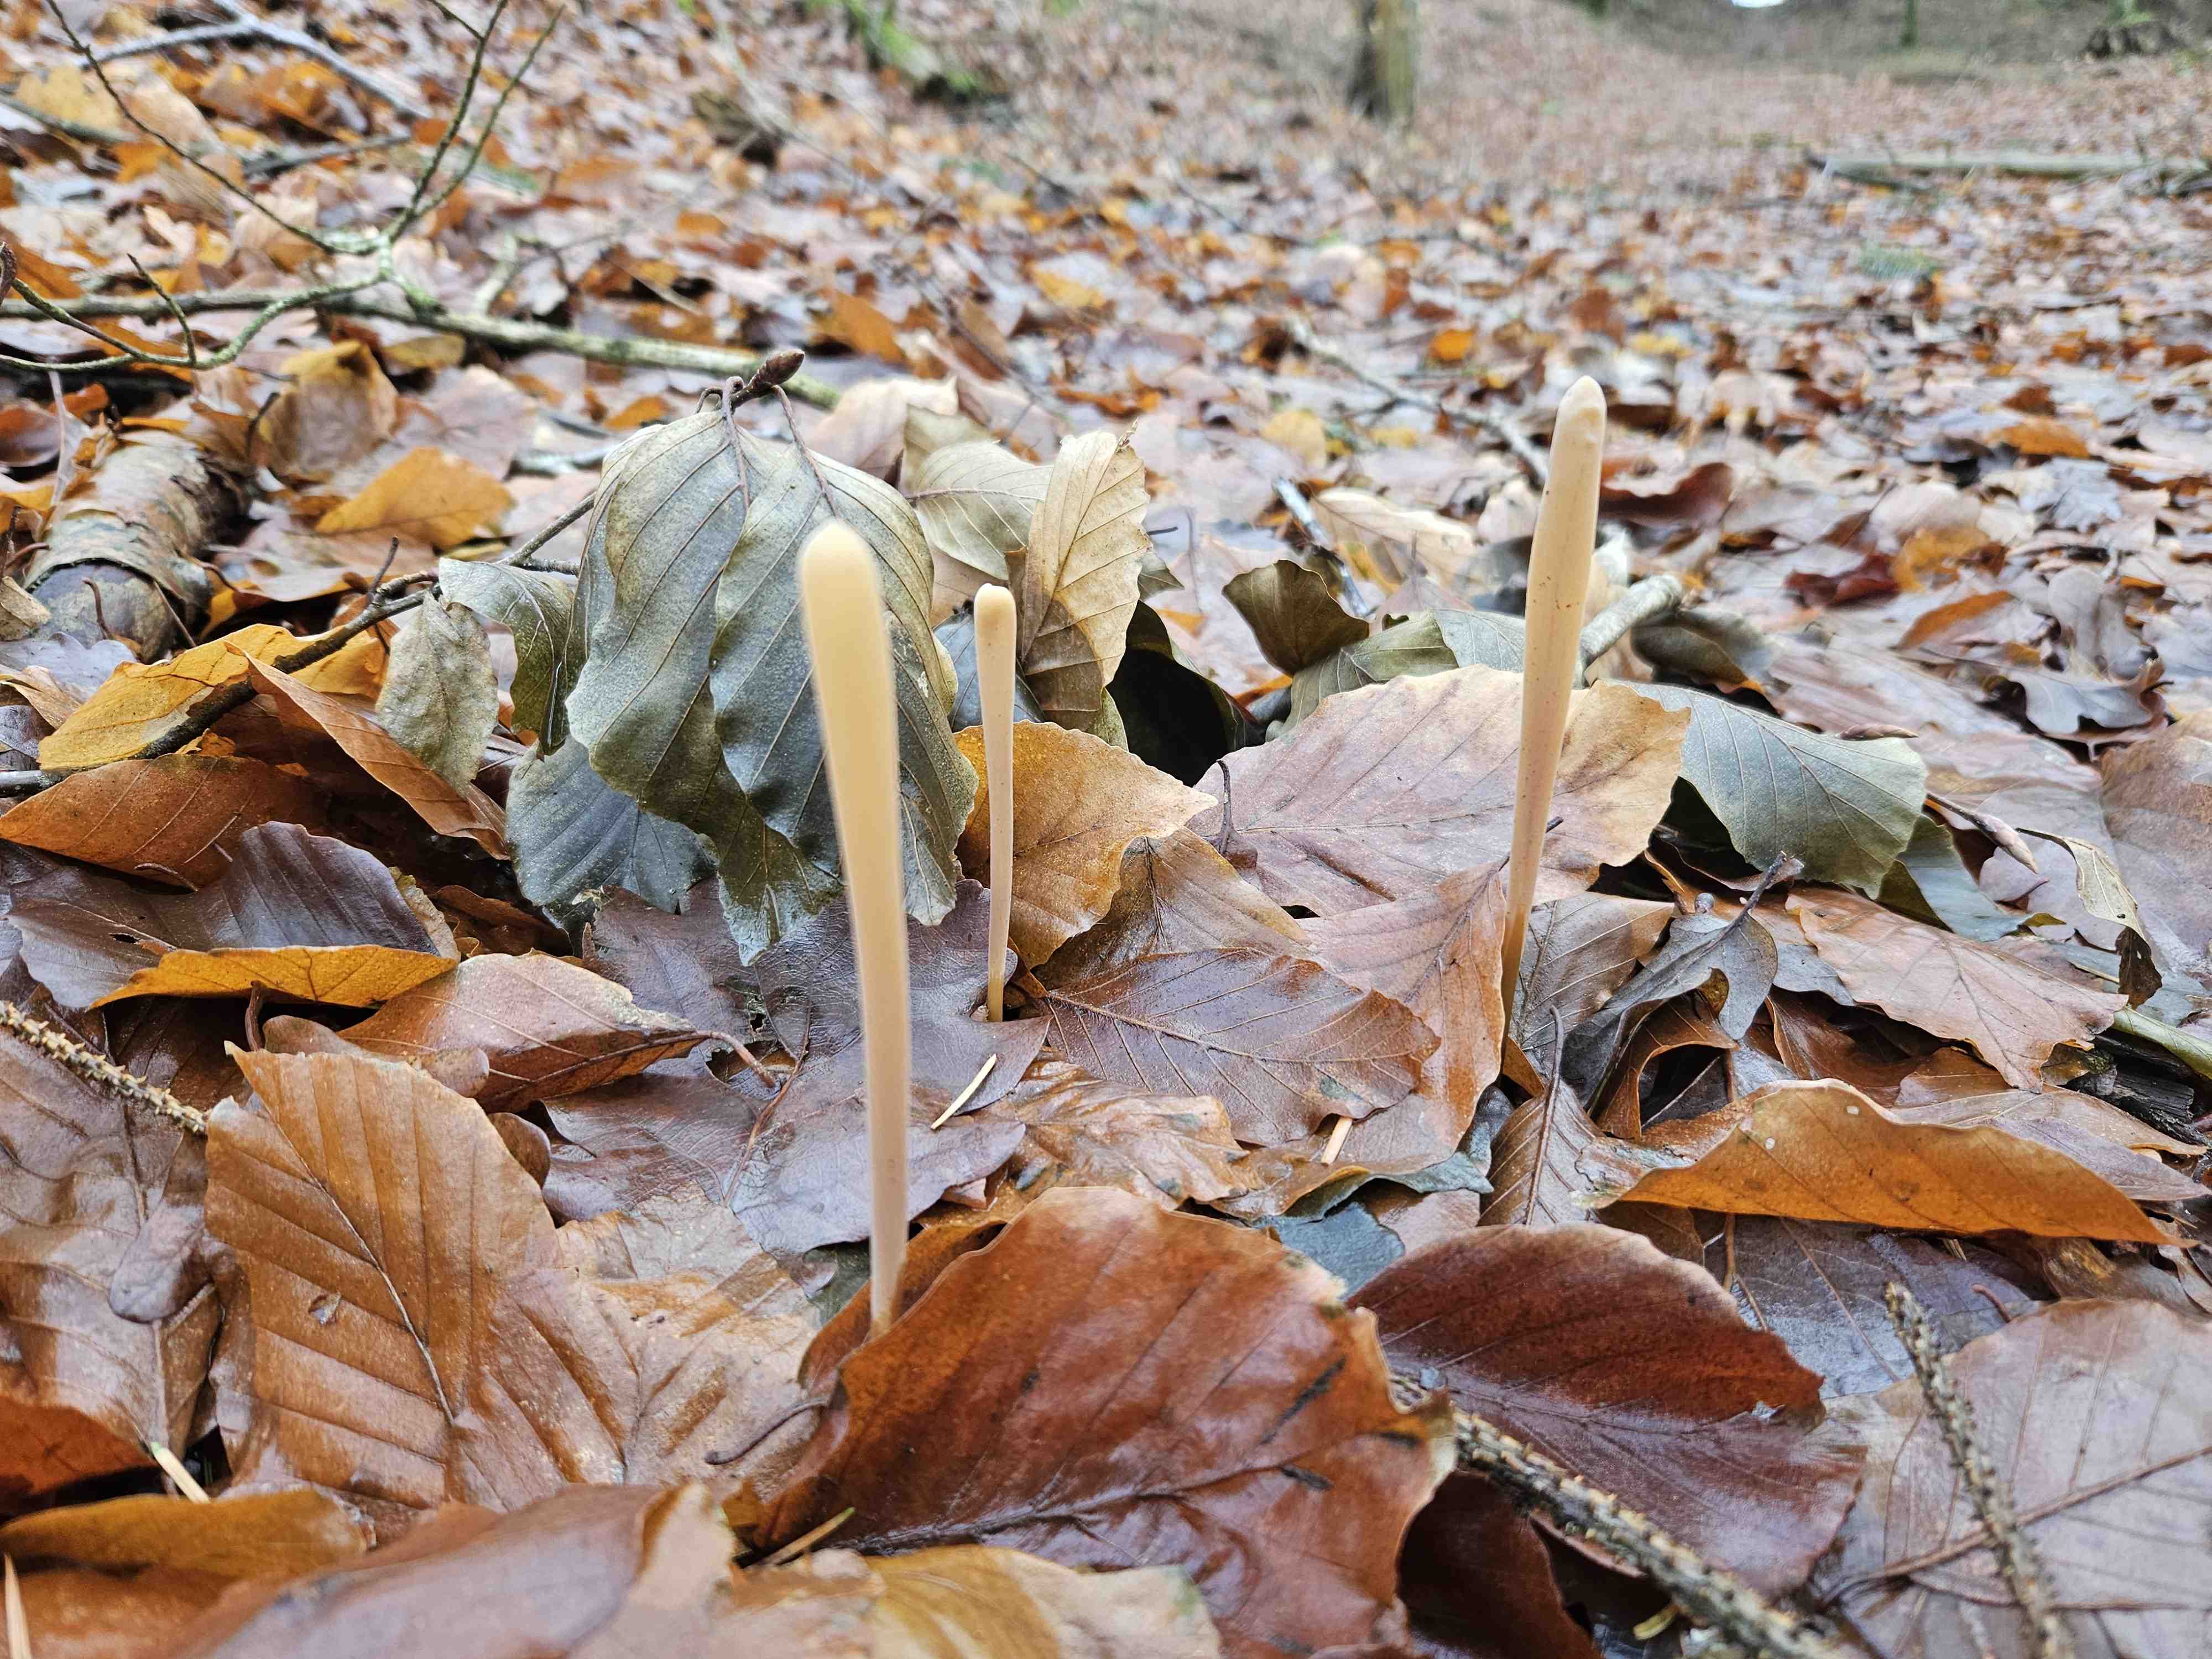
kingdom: Fungi
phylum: Basidiomycota
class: Agaricomycetes
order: Agaricales
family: Typhulaceae
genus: Typhula
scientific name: Typhula fistulosa
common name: pibet rørkølle
